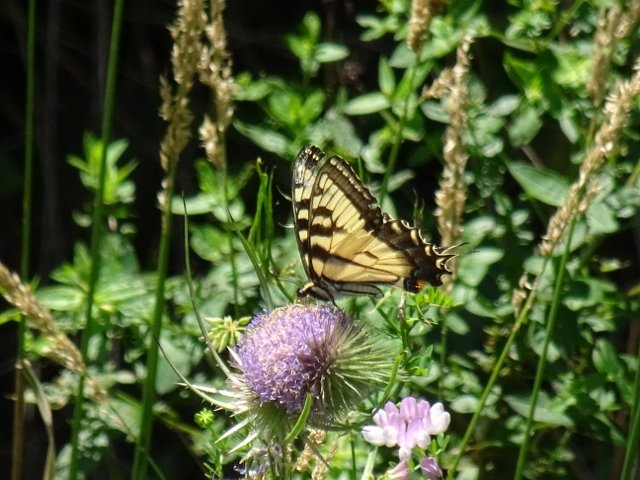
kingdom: Animalia
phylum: Arthropoda
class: Insecta
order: Lepidoptera
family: Papilionidae
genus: Pterourus
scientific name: Pterourus glaucus
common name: Eastern Tiger Swallowtail
